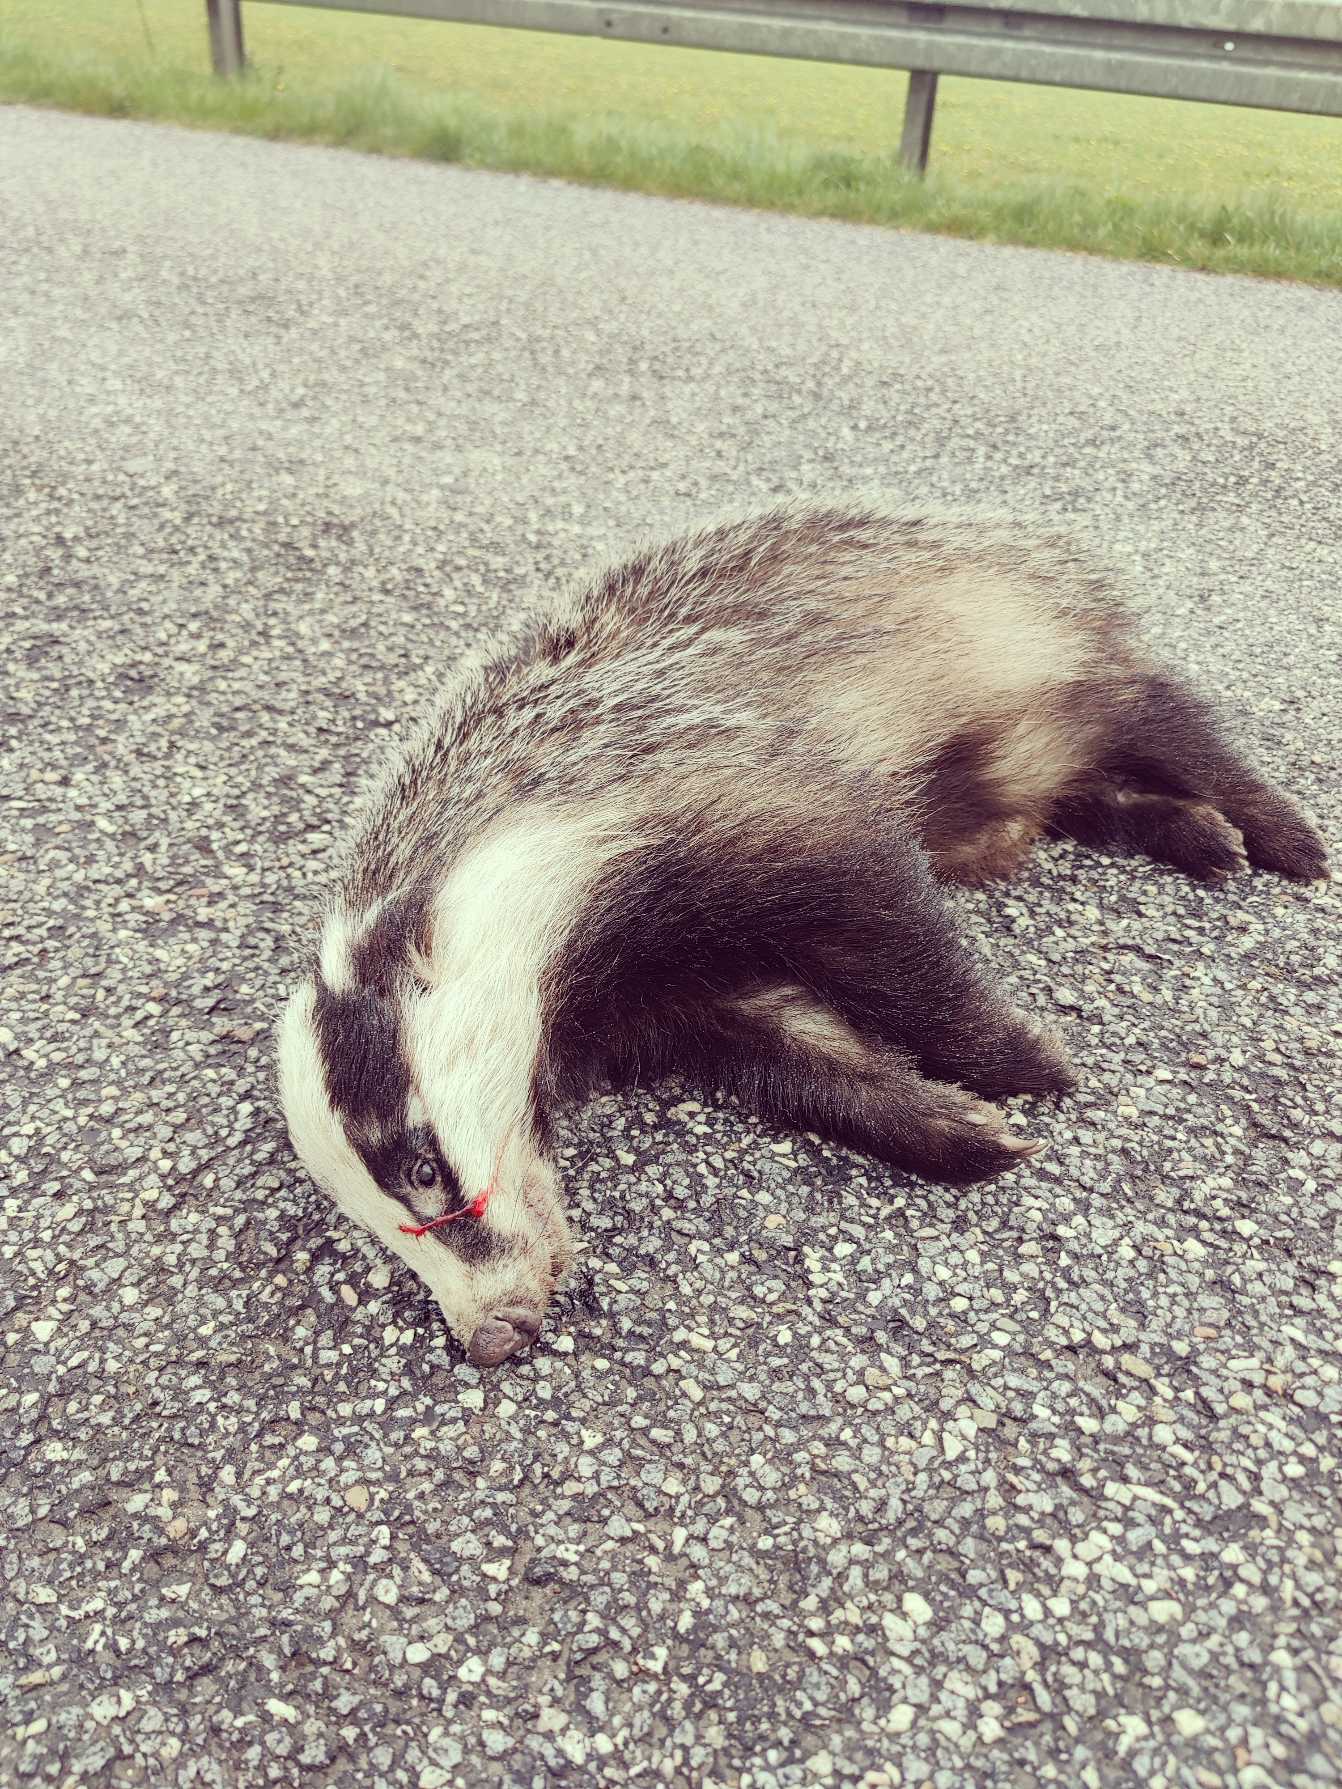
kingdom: Animalia
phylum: Chordata
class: Mammalia
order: Carnivora
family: Mustelidae
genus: Meles
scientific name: Meles meles
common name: Grævling
